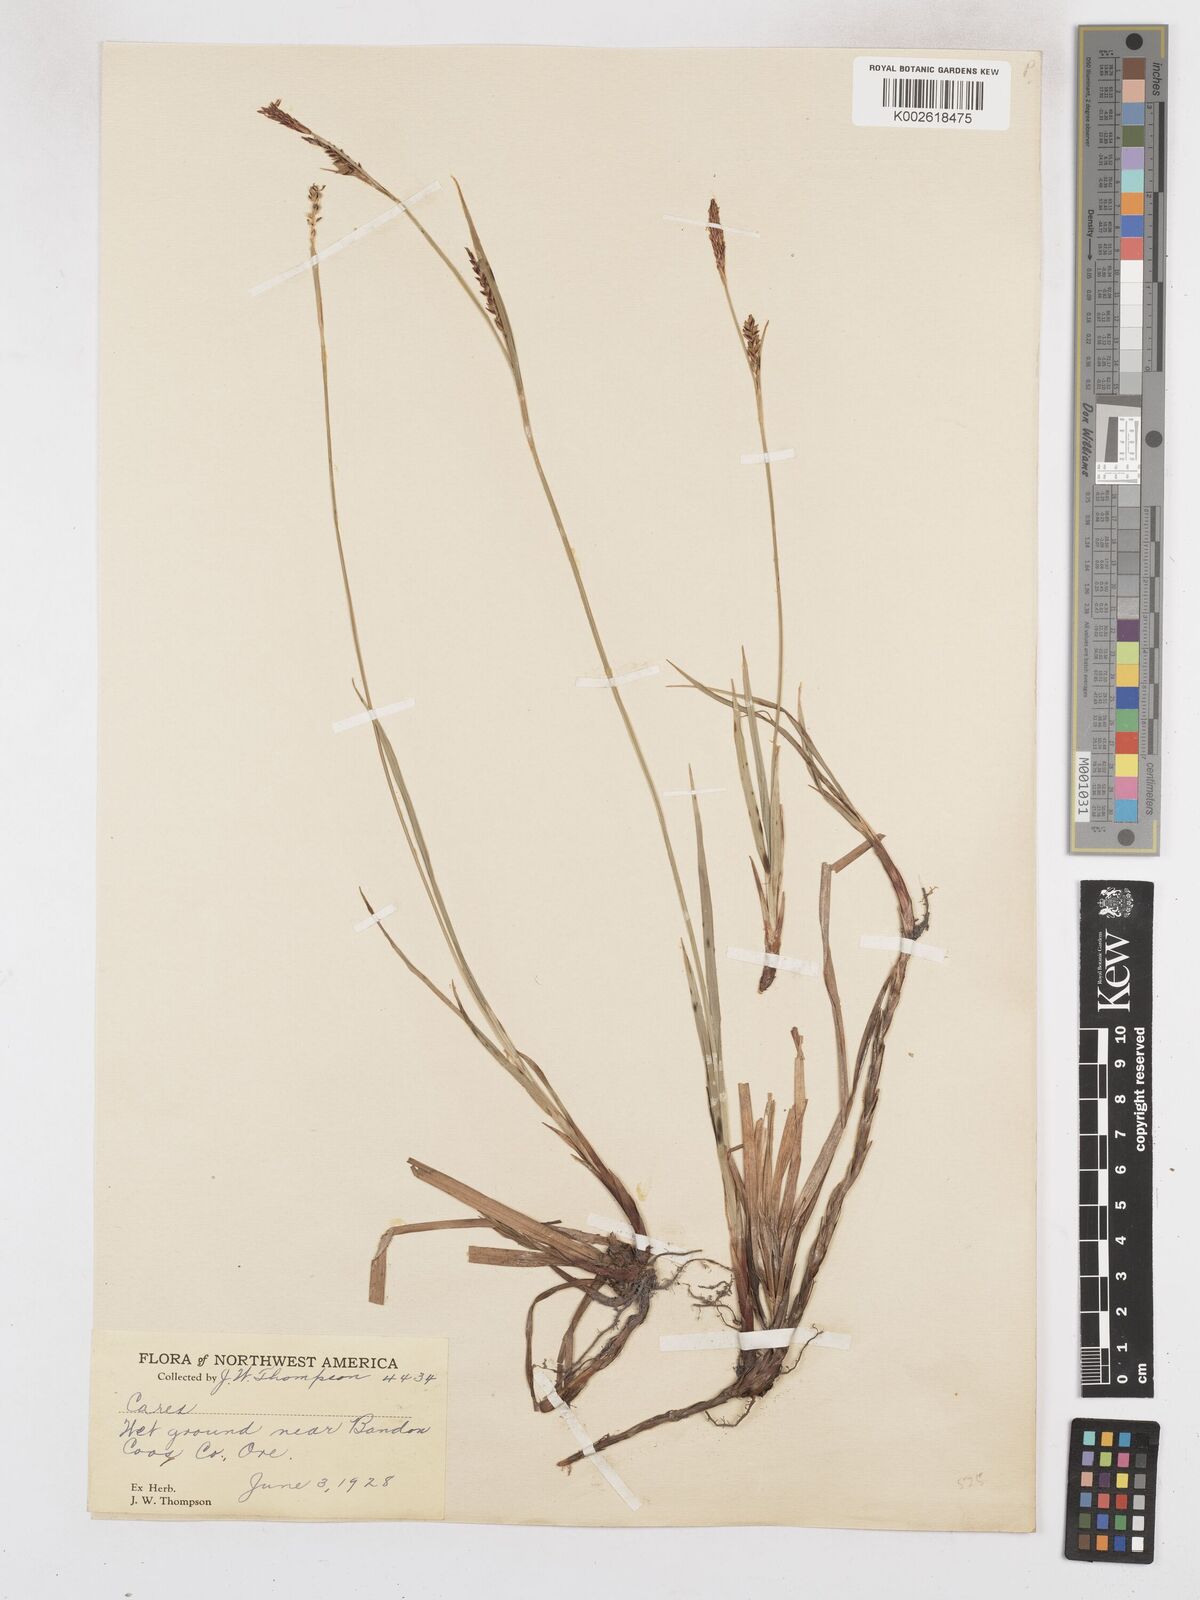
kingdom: Plantae
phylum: Tracheophyta
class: Liliopsida
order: Poales
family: Cyperaceae
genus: Carex
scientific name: Carex panicea
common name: Carnation sedge
